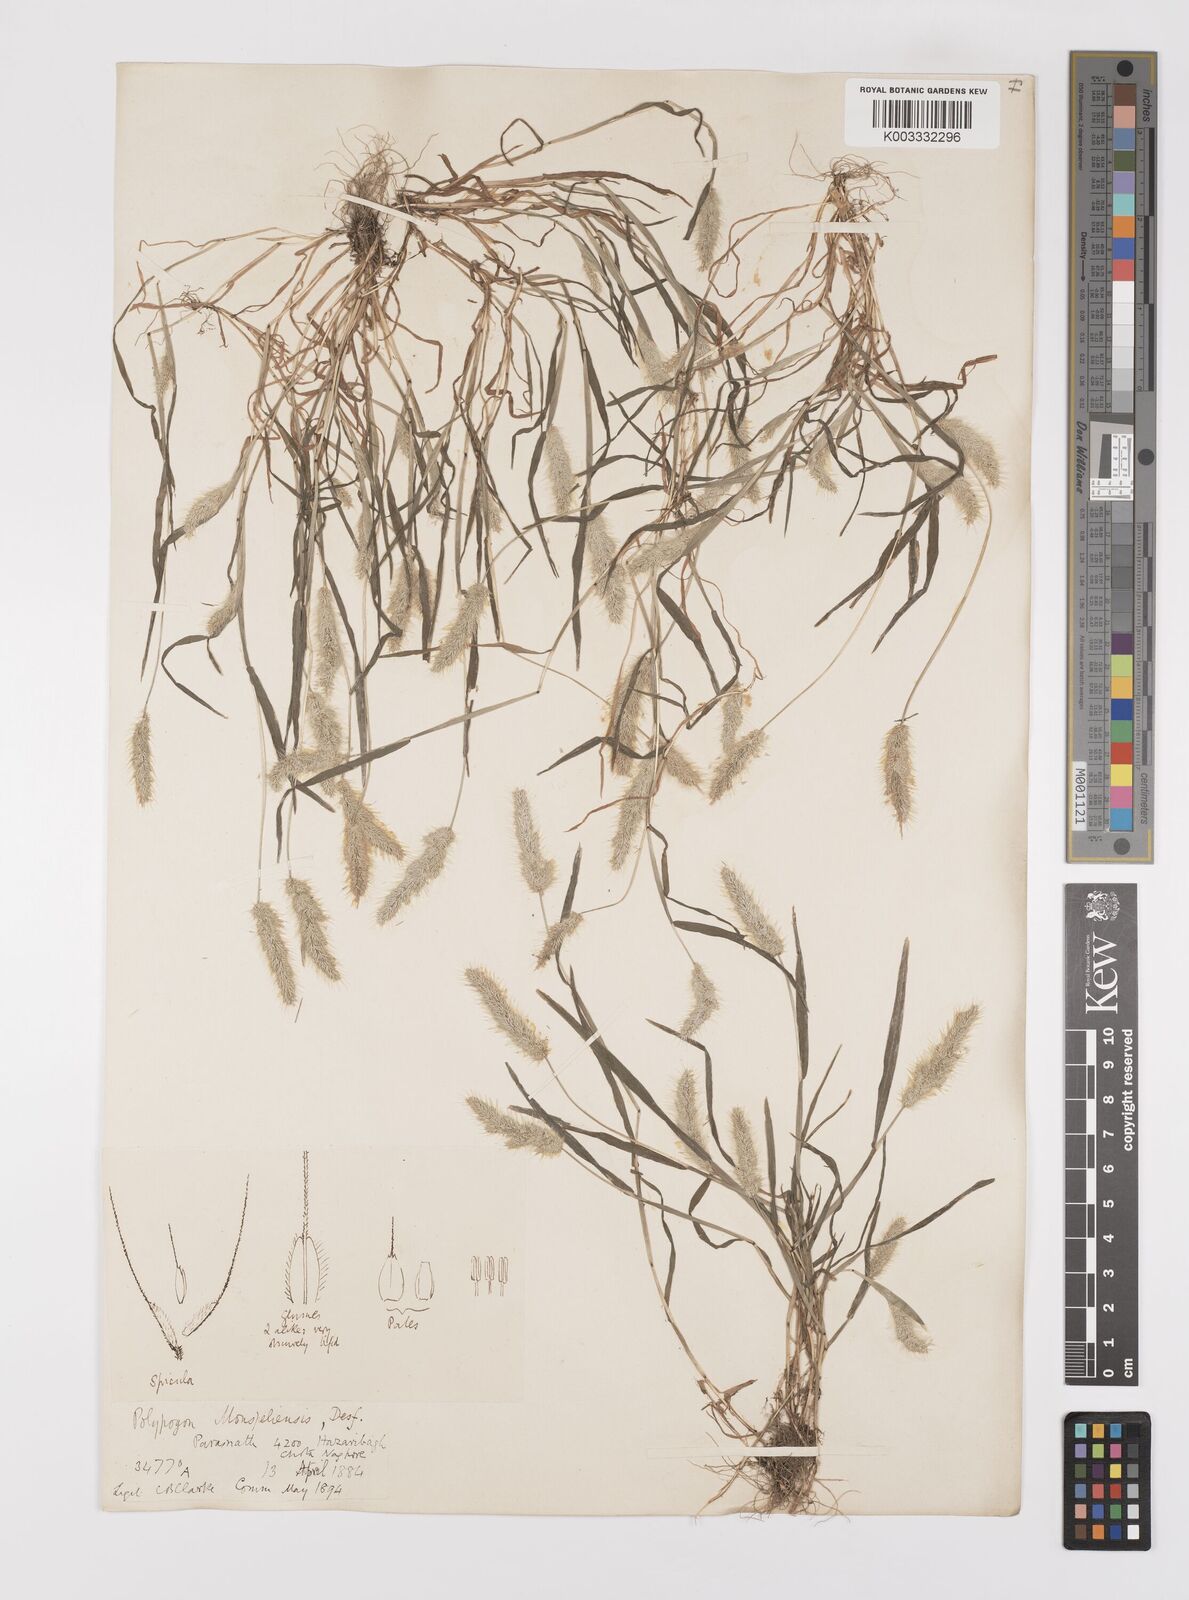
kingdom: Plantae
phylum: Tracheophyta
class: Liliopsida
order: Poales
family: Poaceae
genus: Polypogon
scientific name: Polypogon monspeliensis
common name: Annual rabbitsfoot grass
